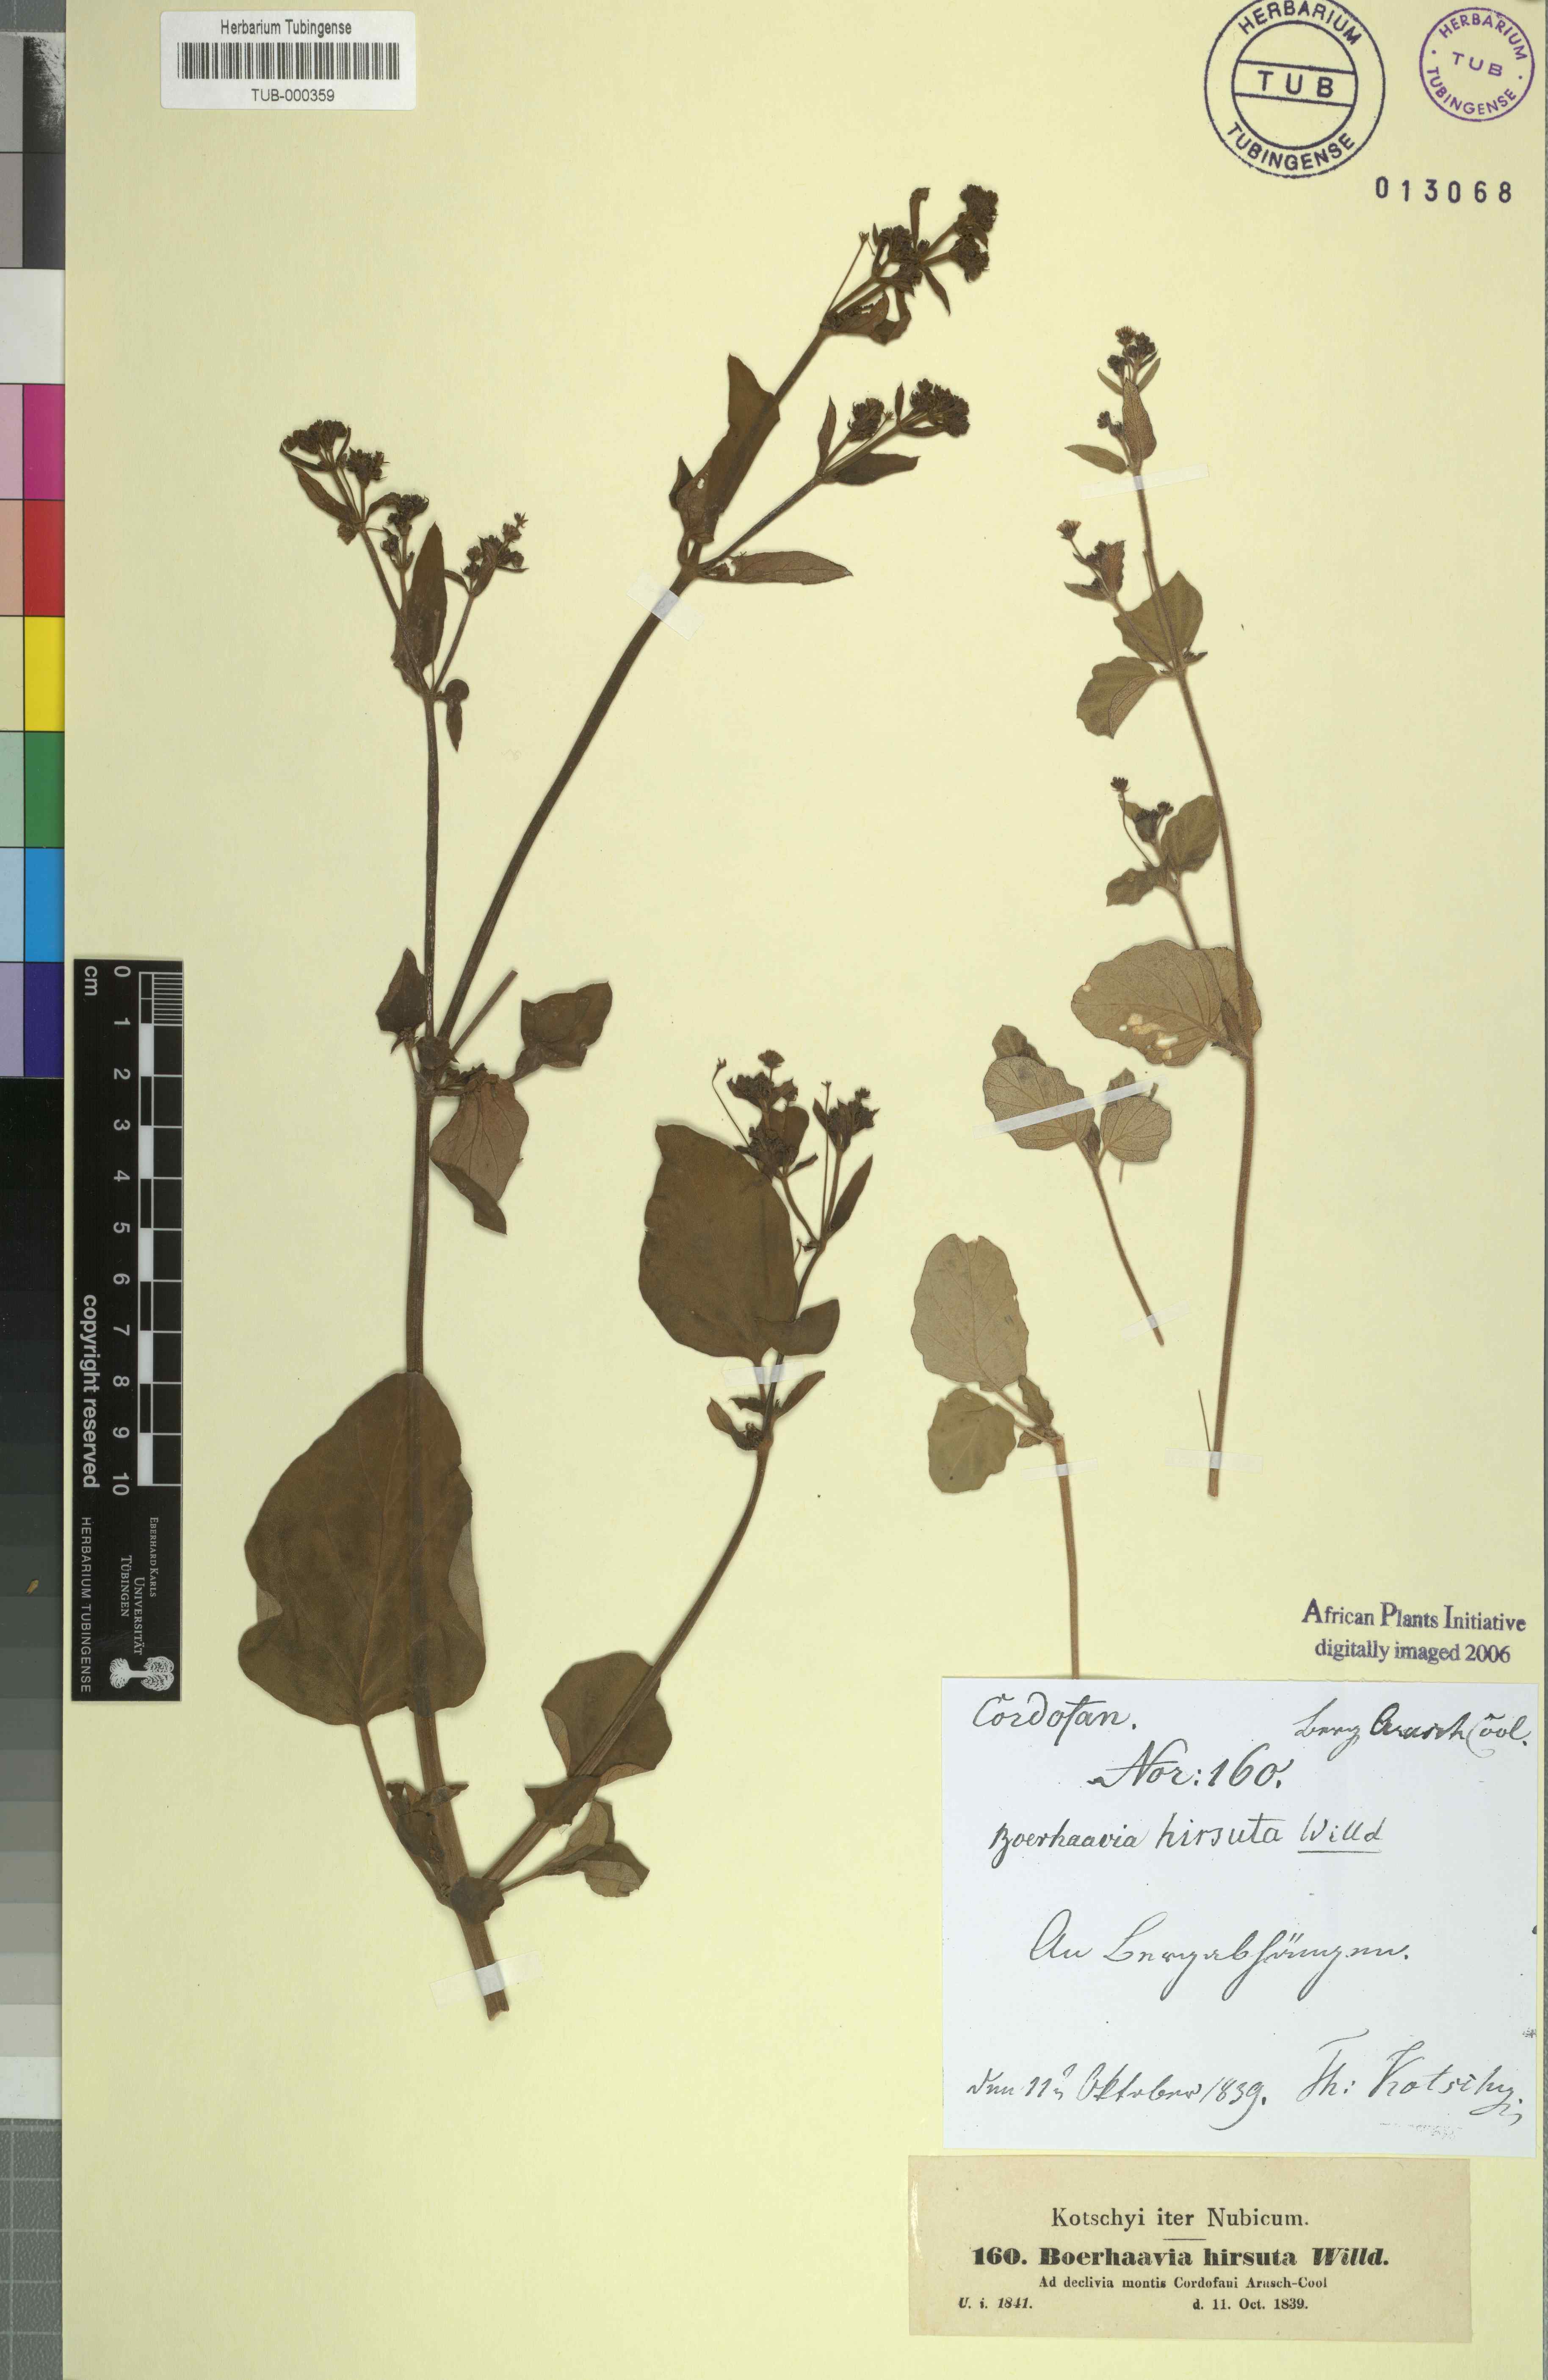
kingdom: Plantae
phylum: Tracheophyta
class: Magnoliopsida
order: Caryophyllales
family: Nyctaginaceae
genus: Boerhavia
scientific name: Boerhavia repens
